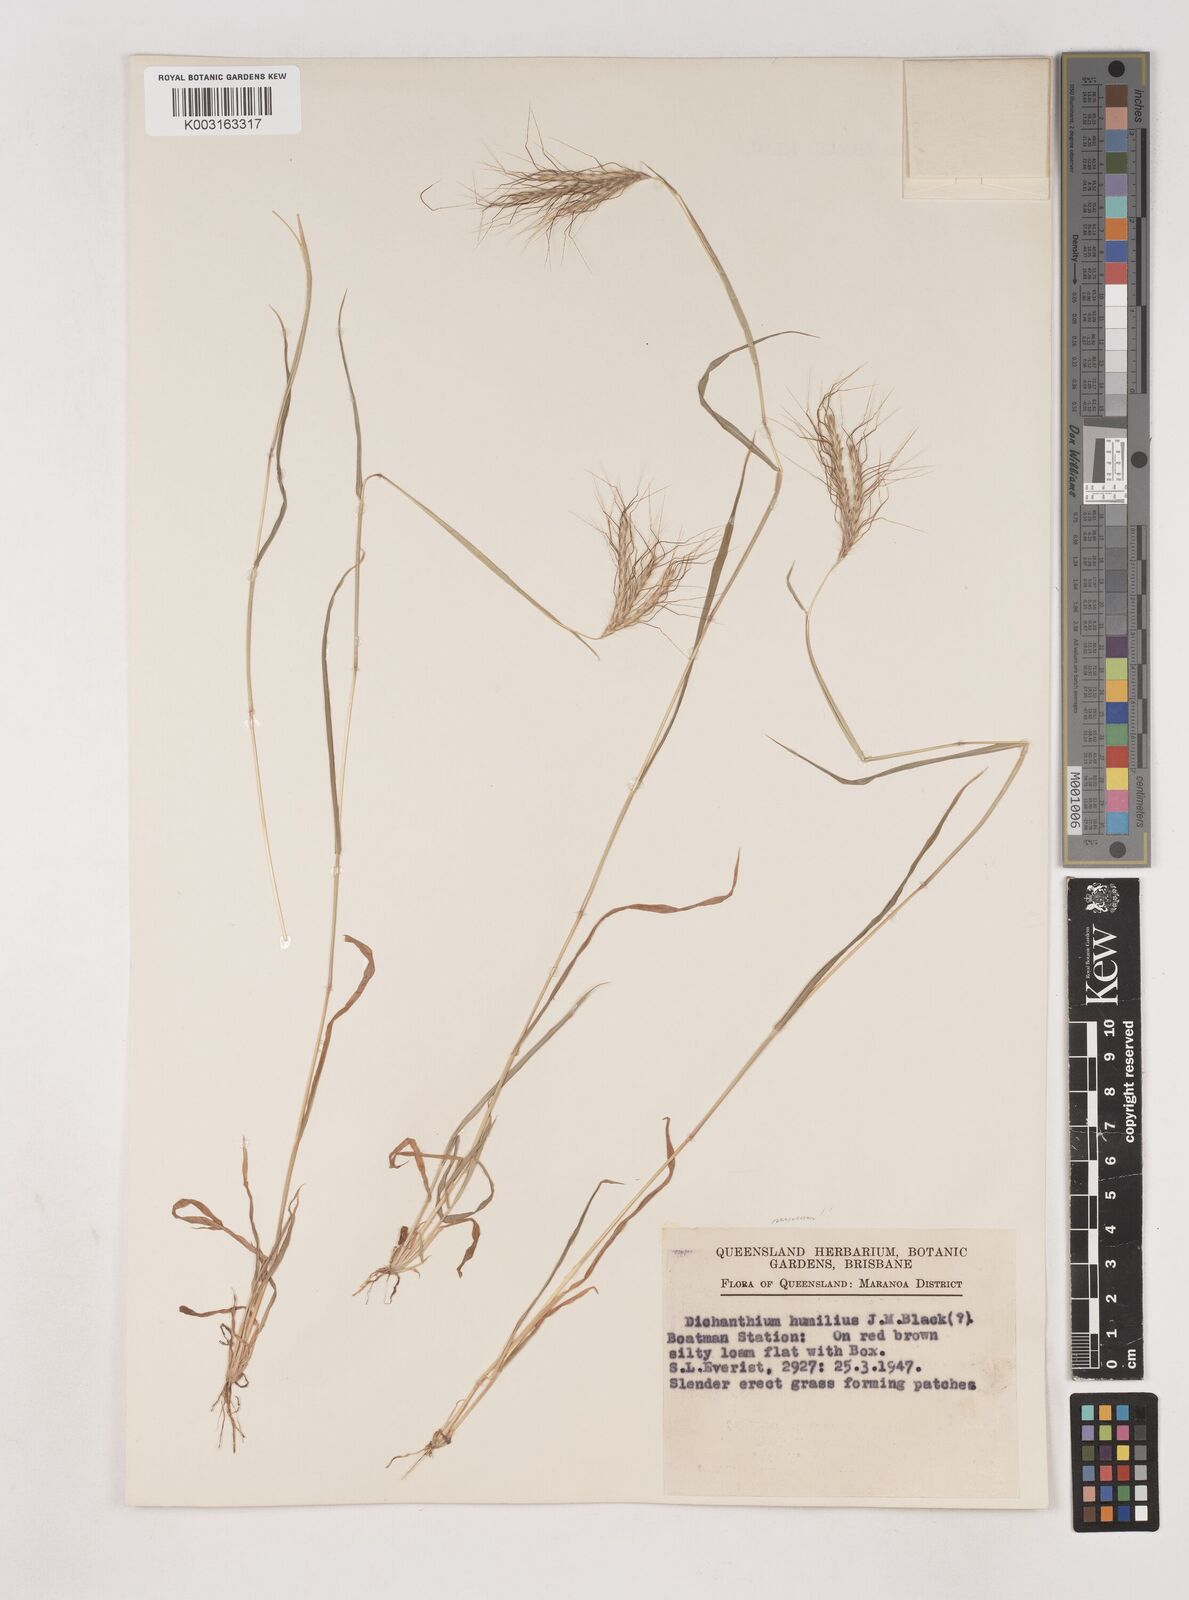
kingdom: Plantae
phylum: Tracheophyta
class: Liliopsida
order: Poales
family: Poaceae
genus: Dichanthium
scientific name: Dichanthium sericeum
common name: Silky bluestem
